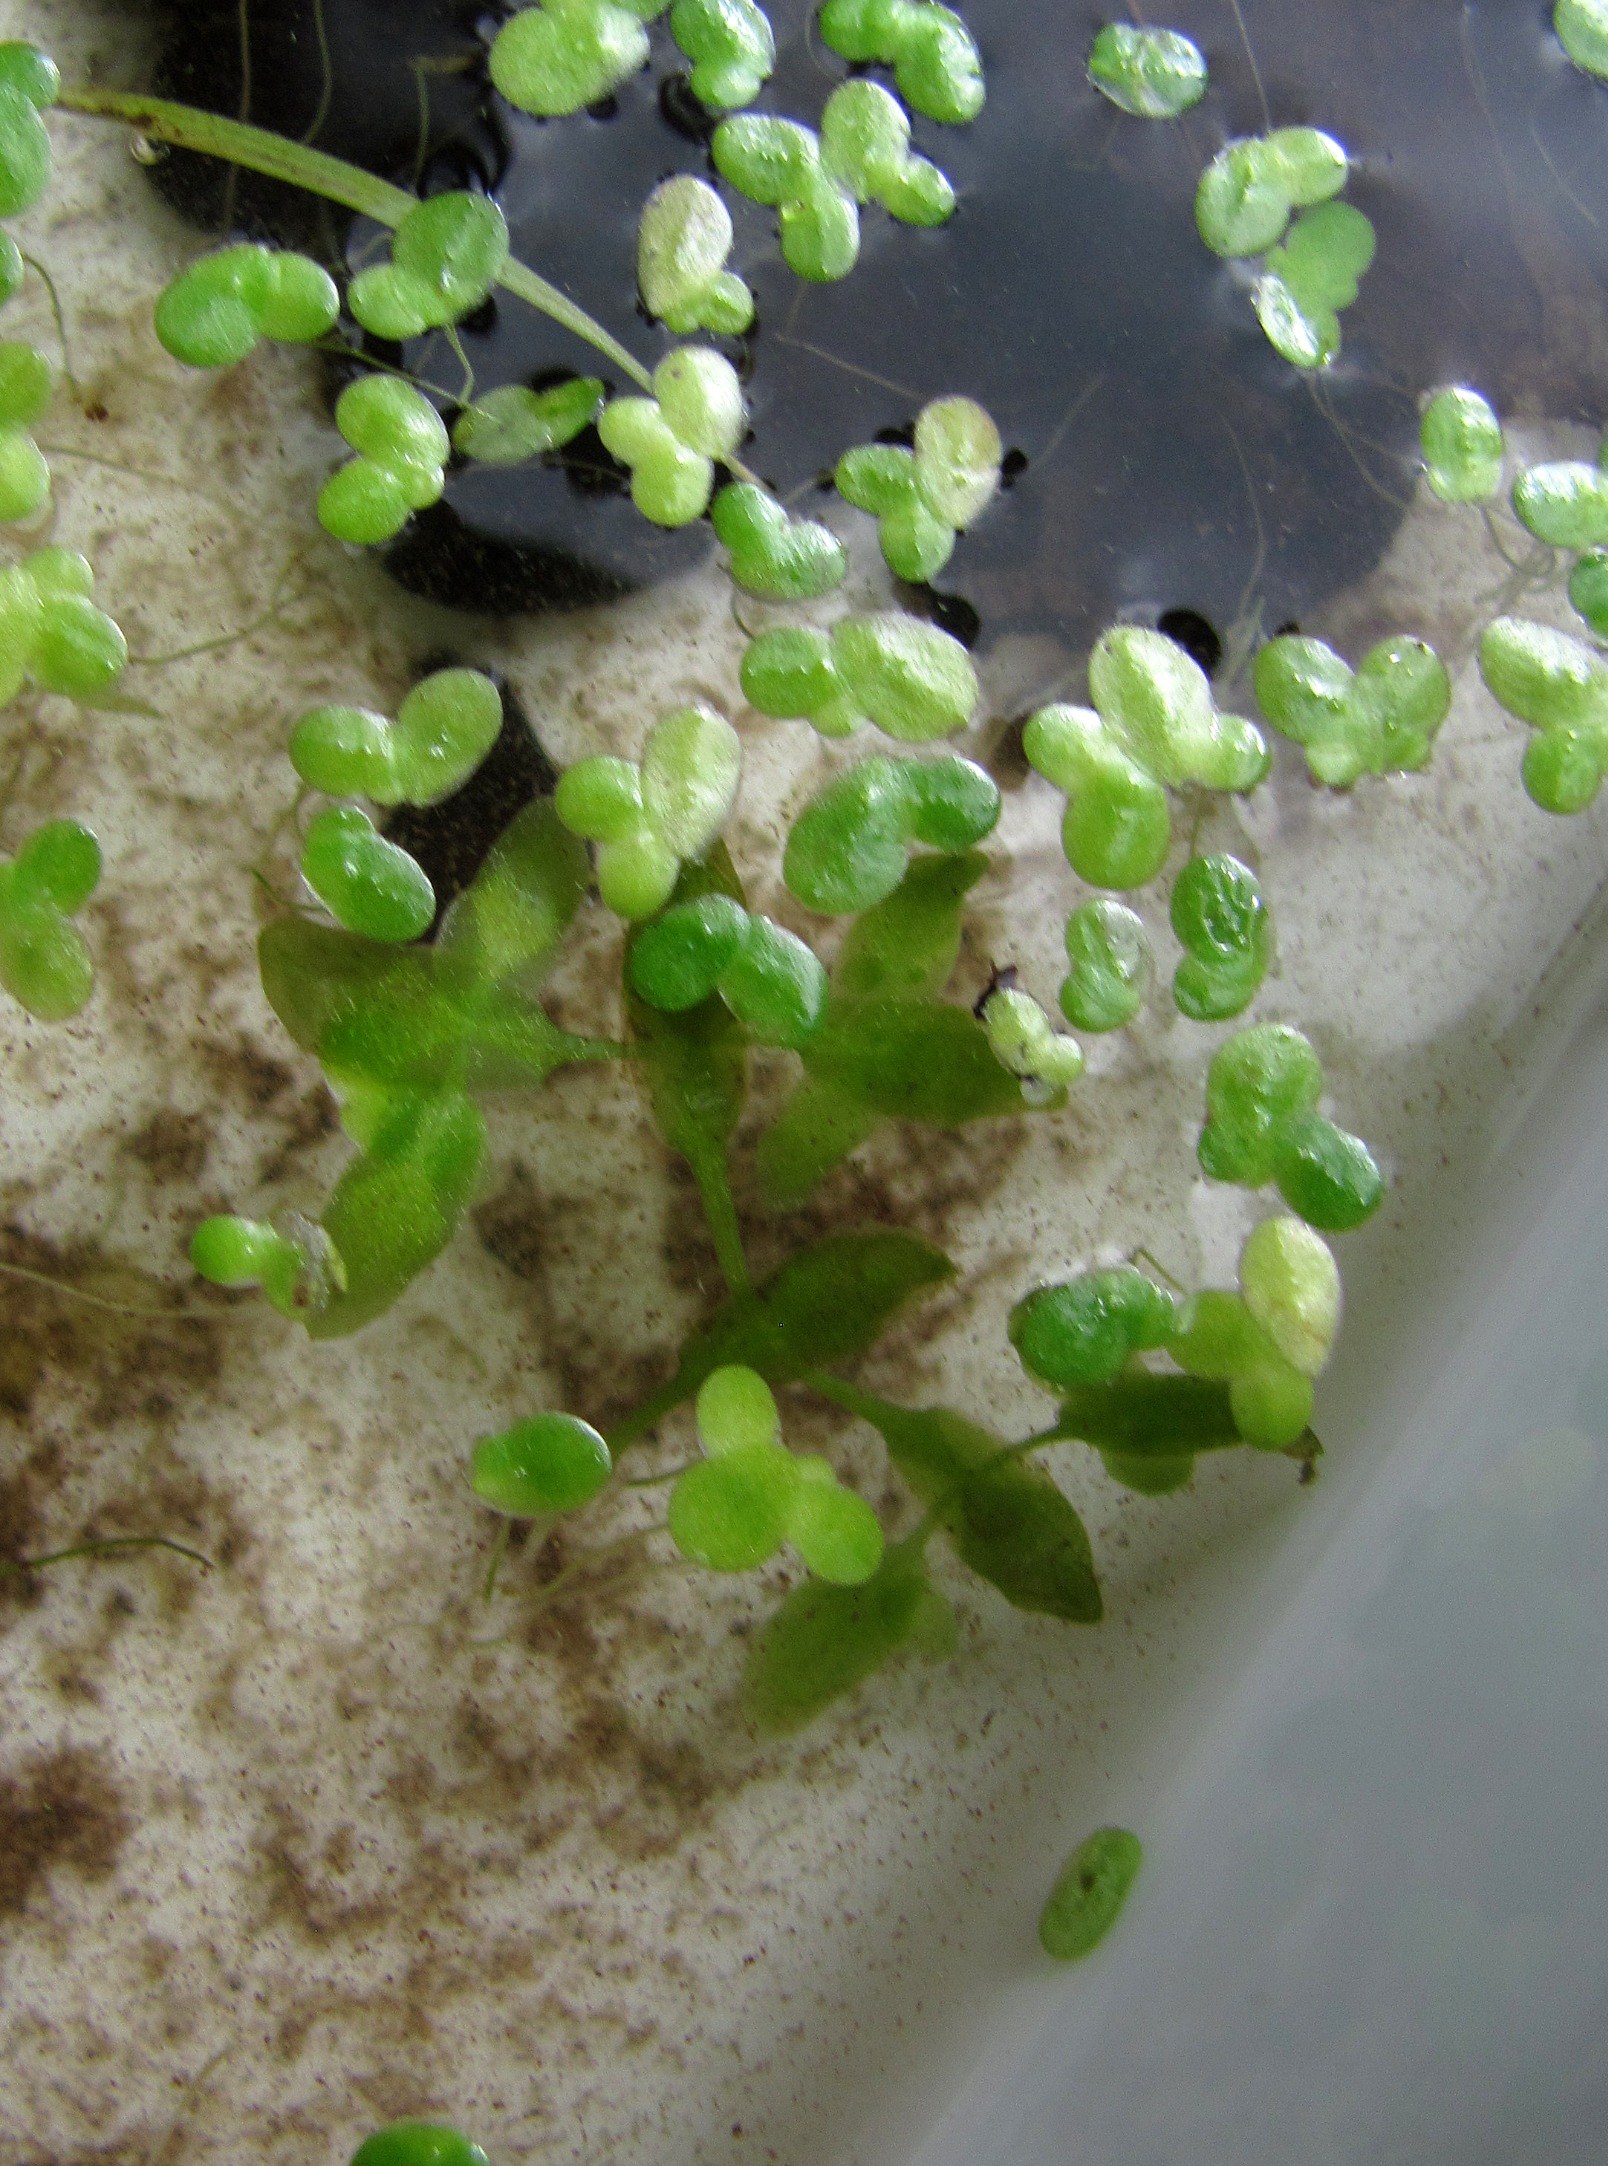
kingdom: Plantae
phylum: Tracheophyta
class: Liliopsida
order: Alismatales
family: Araceae
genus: Lemna
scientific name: Lemna trisulca
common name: Kors-andemad
